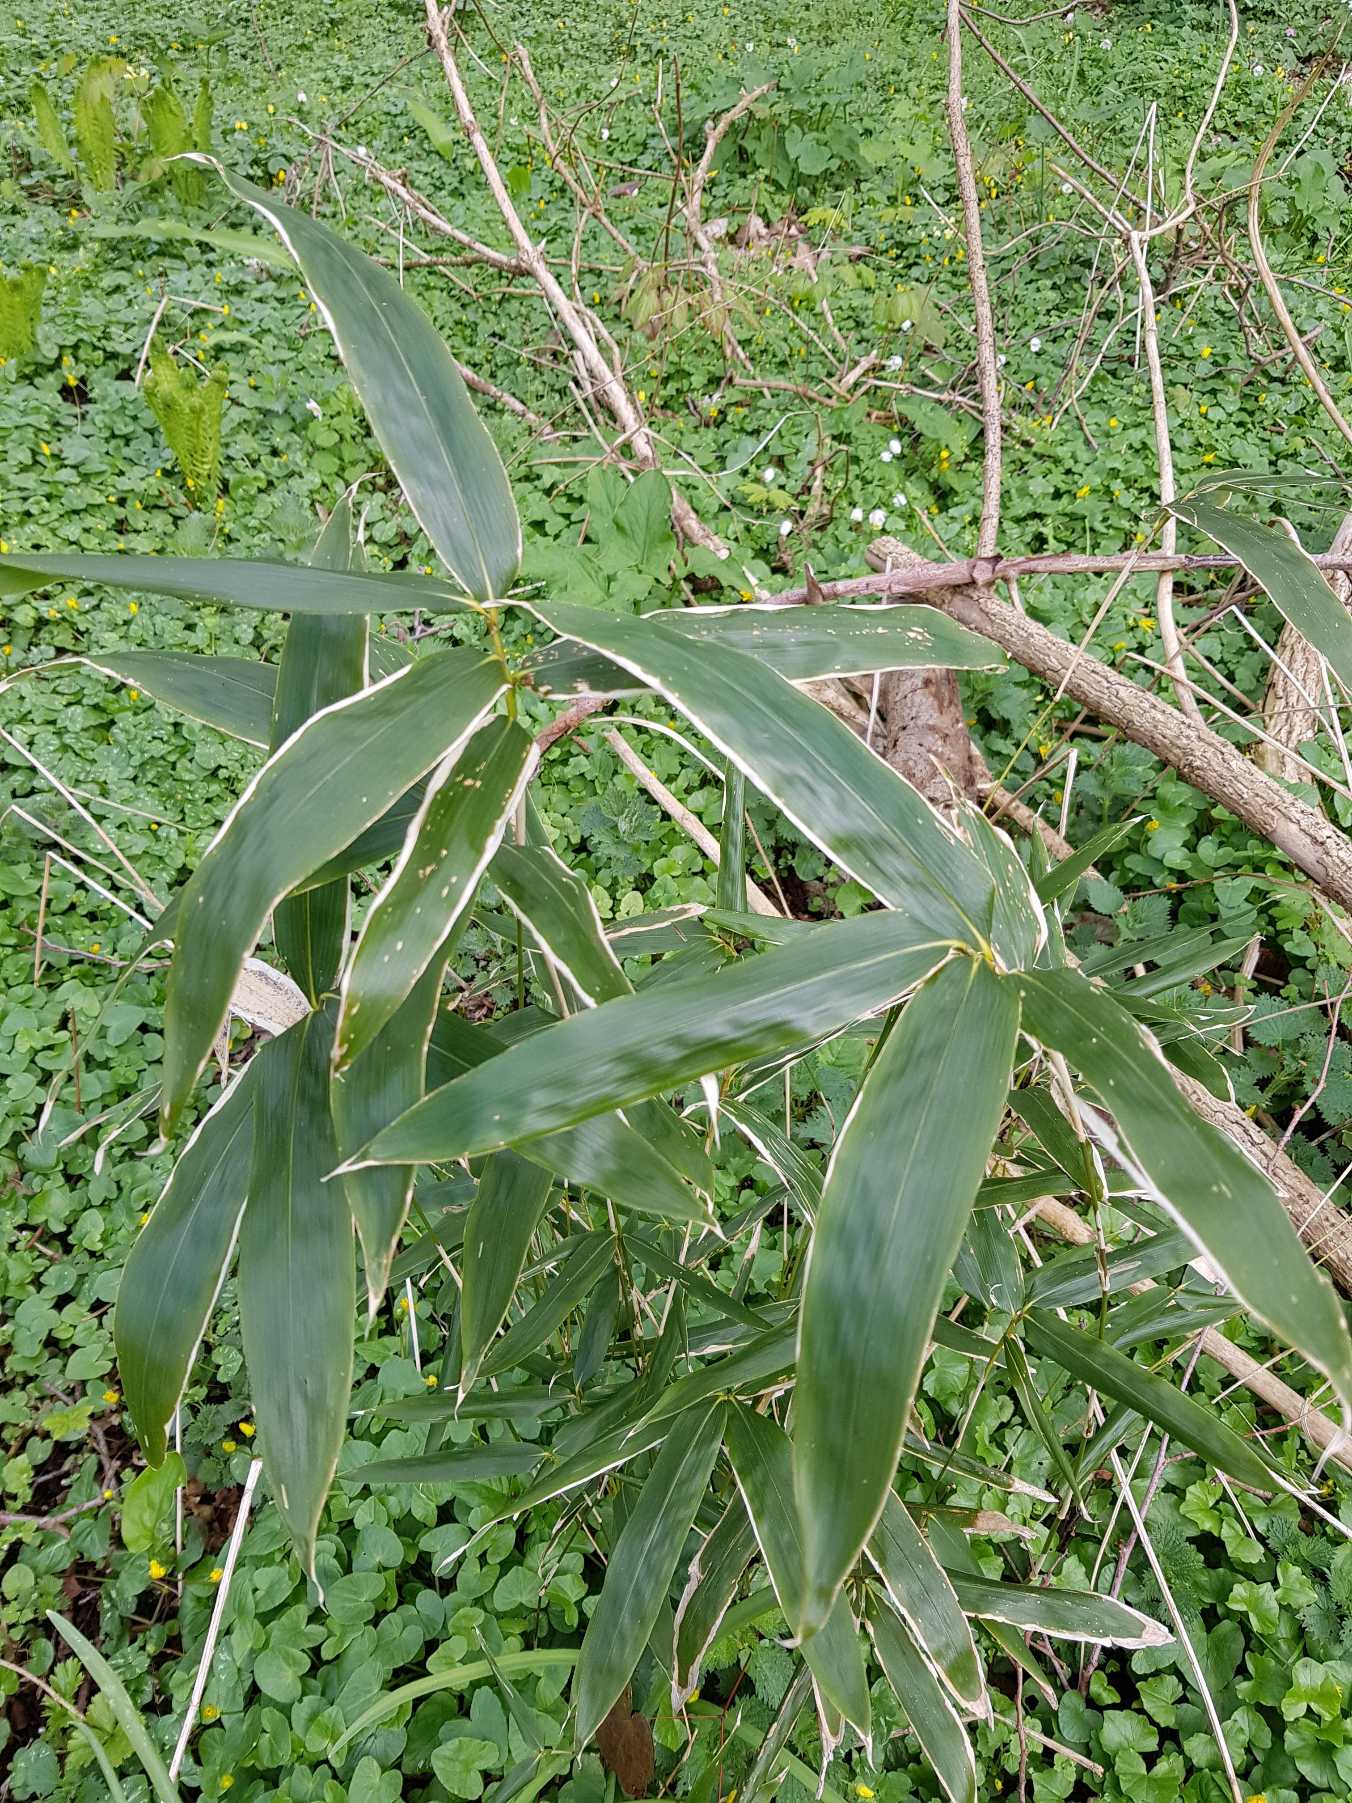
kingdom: Plantae
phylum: Tracheophyta
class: Liliopsida
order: Poales
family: Poaceae
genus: Sasa
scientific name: Sasa veitchii
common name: Hvidrandet bambus
